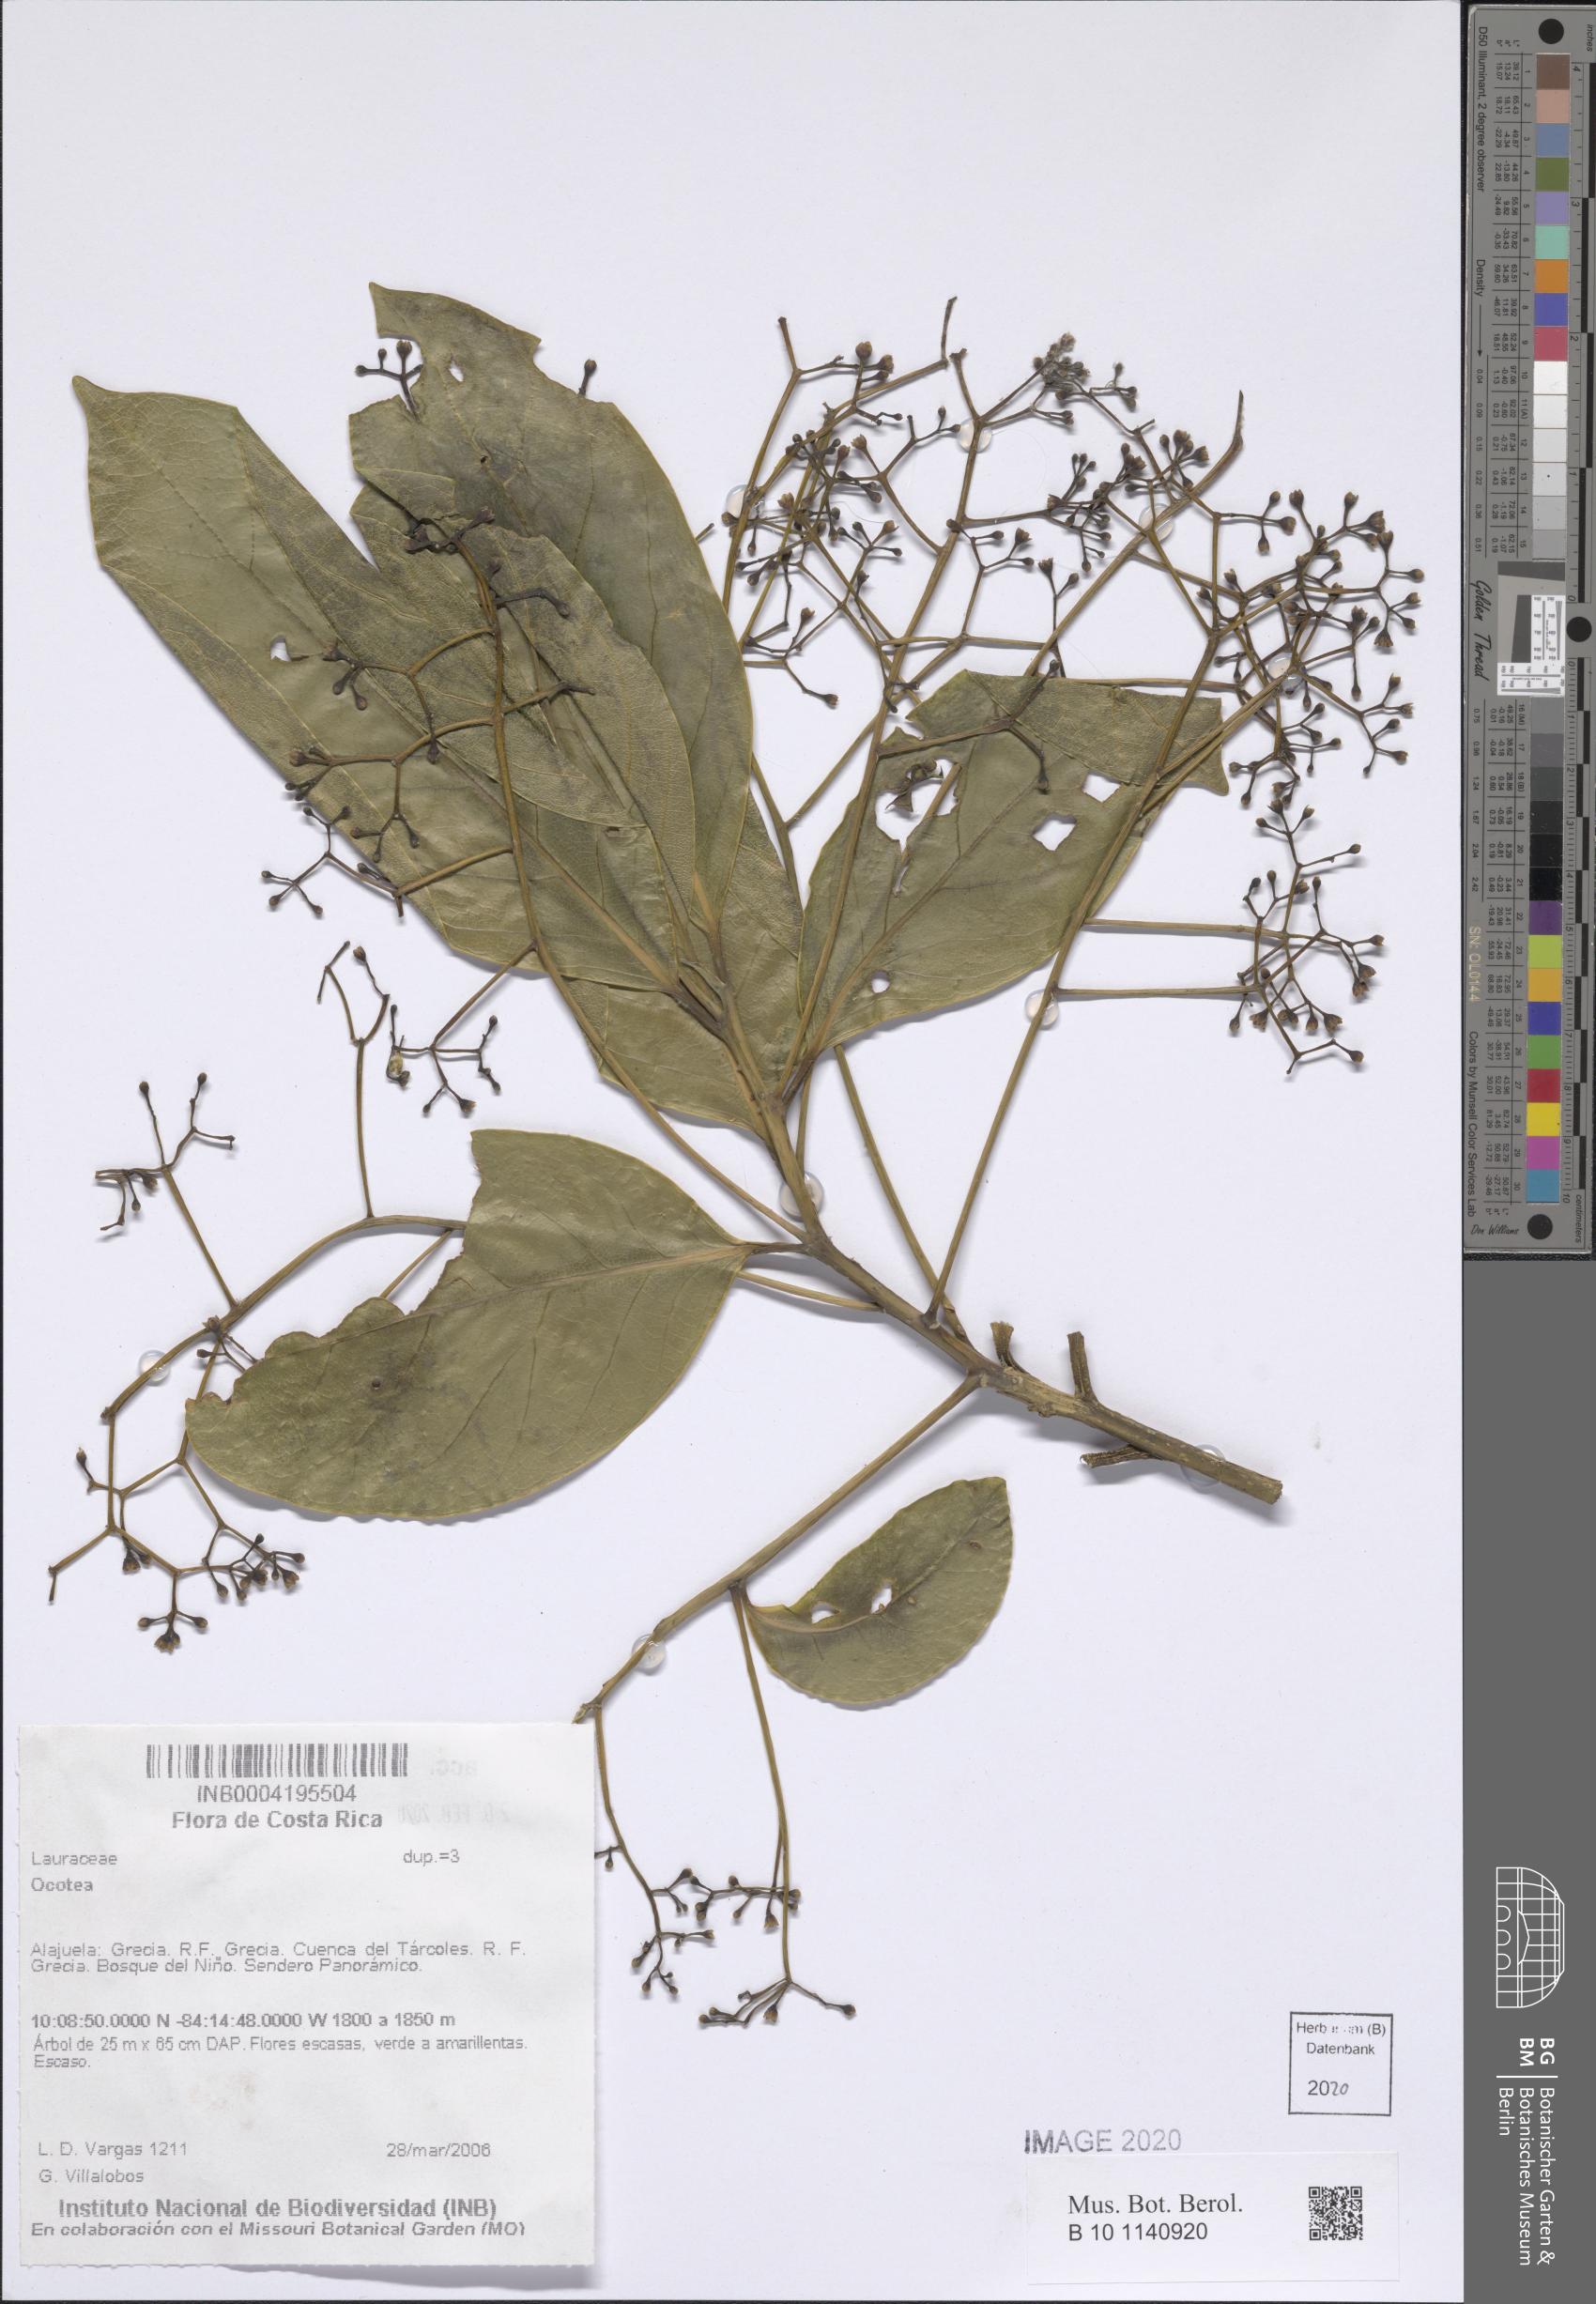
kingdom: Plantae
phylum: Tracheophyta
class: Magnoliopsida
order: Laurales
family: Lauraceae
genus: Ocotea
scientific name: Ocotea
